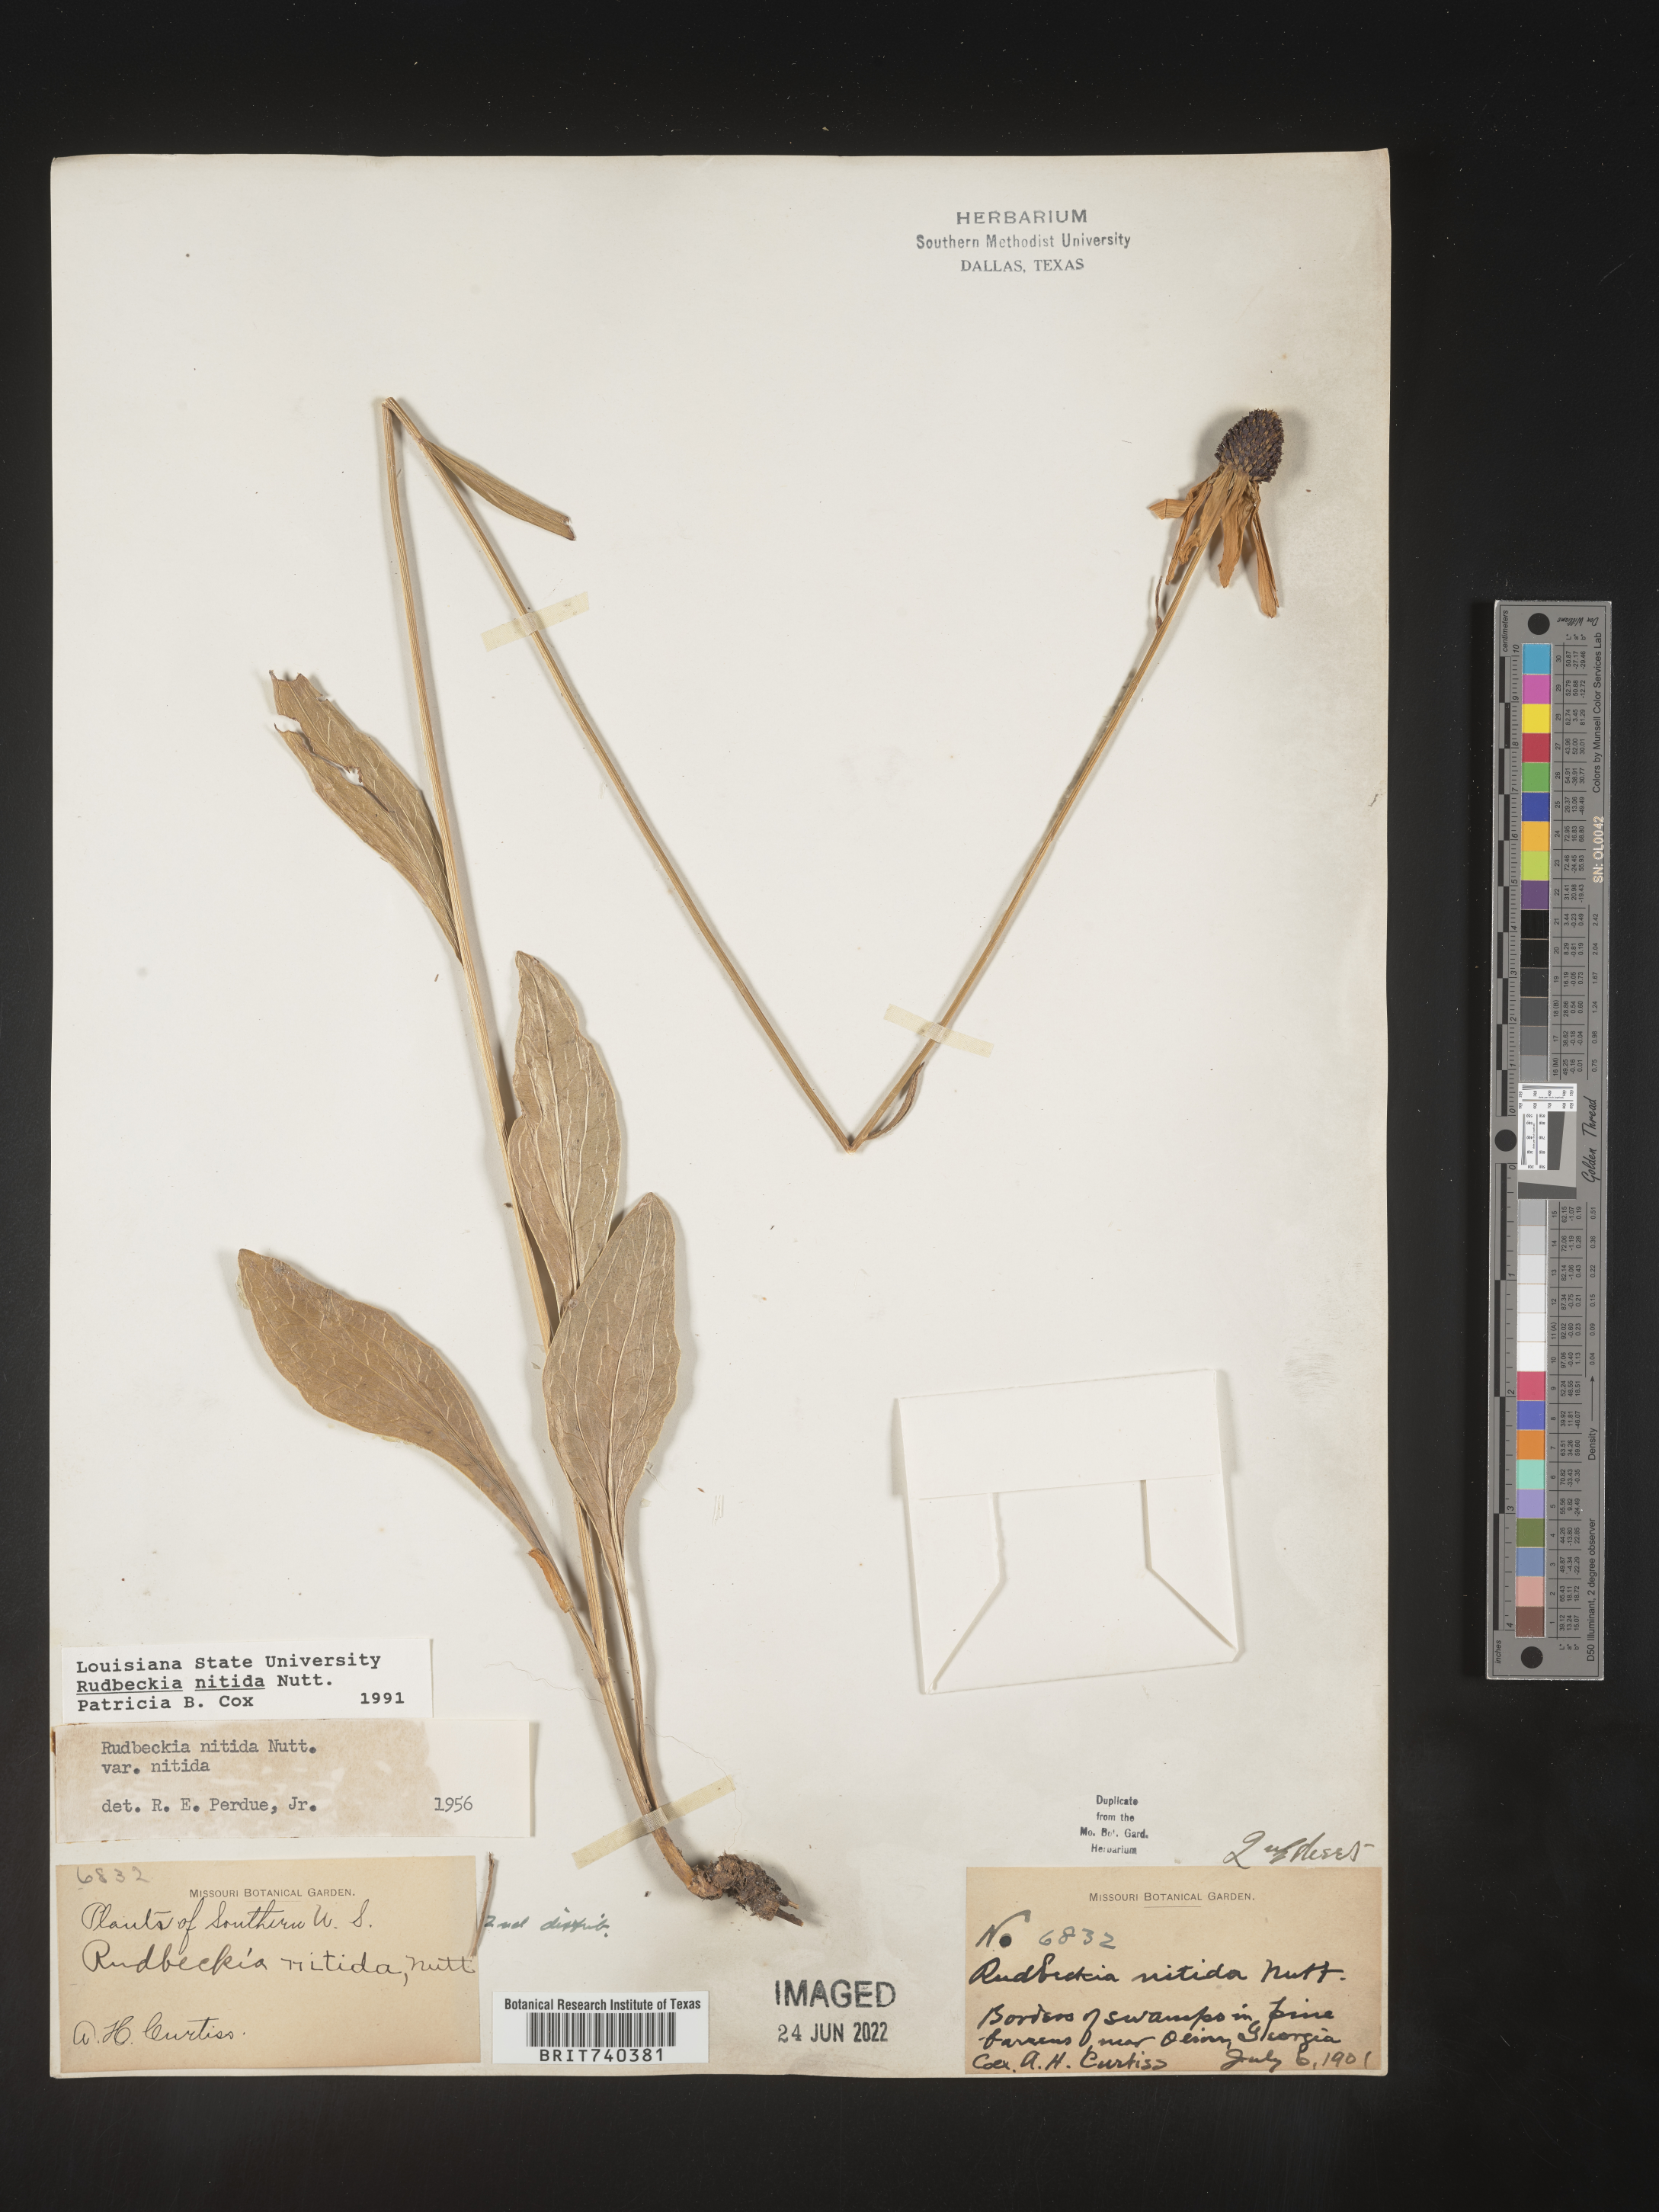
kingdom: Plantae
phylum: Tracheophyta
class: Magnoliopsida
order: Asterales
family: Asteraceae
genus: Rudbeckia
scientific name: Rudbeckia nitida
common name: Black-eyed-susan
